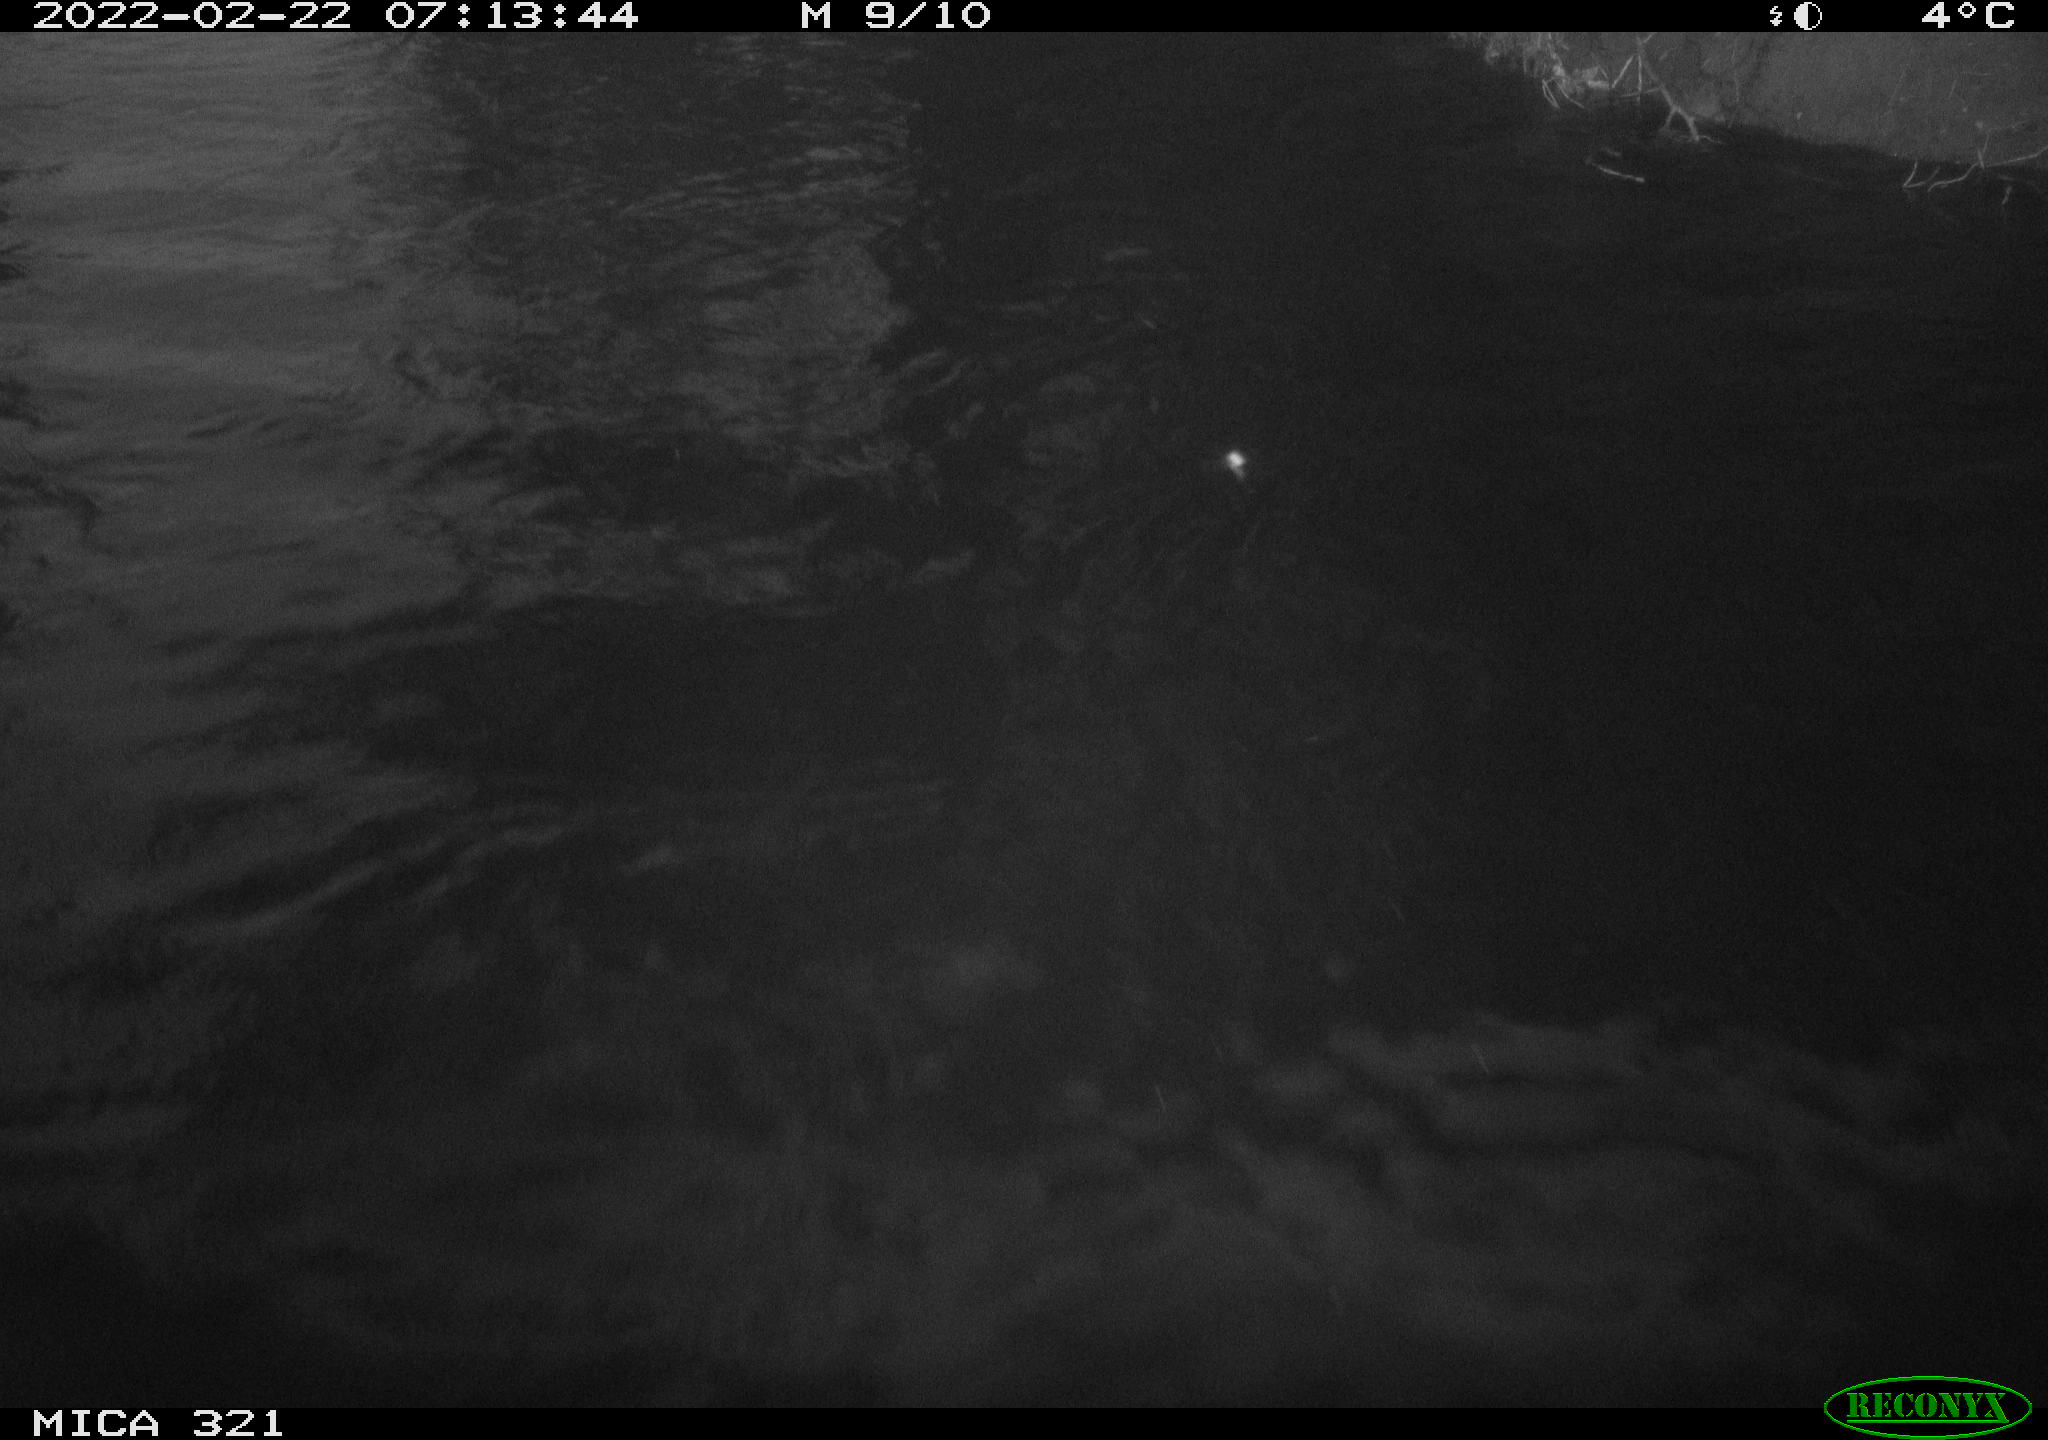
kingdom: Animalia
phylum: Chordata
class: Aves
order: Anseriformes
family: Anatidae
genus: Anas
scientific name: Anas platyrhynchos
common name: Mallard
